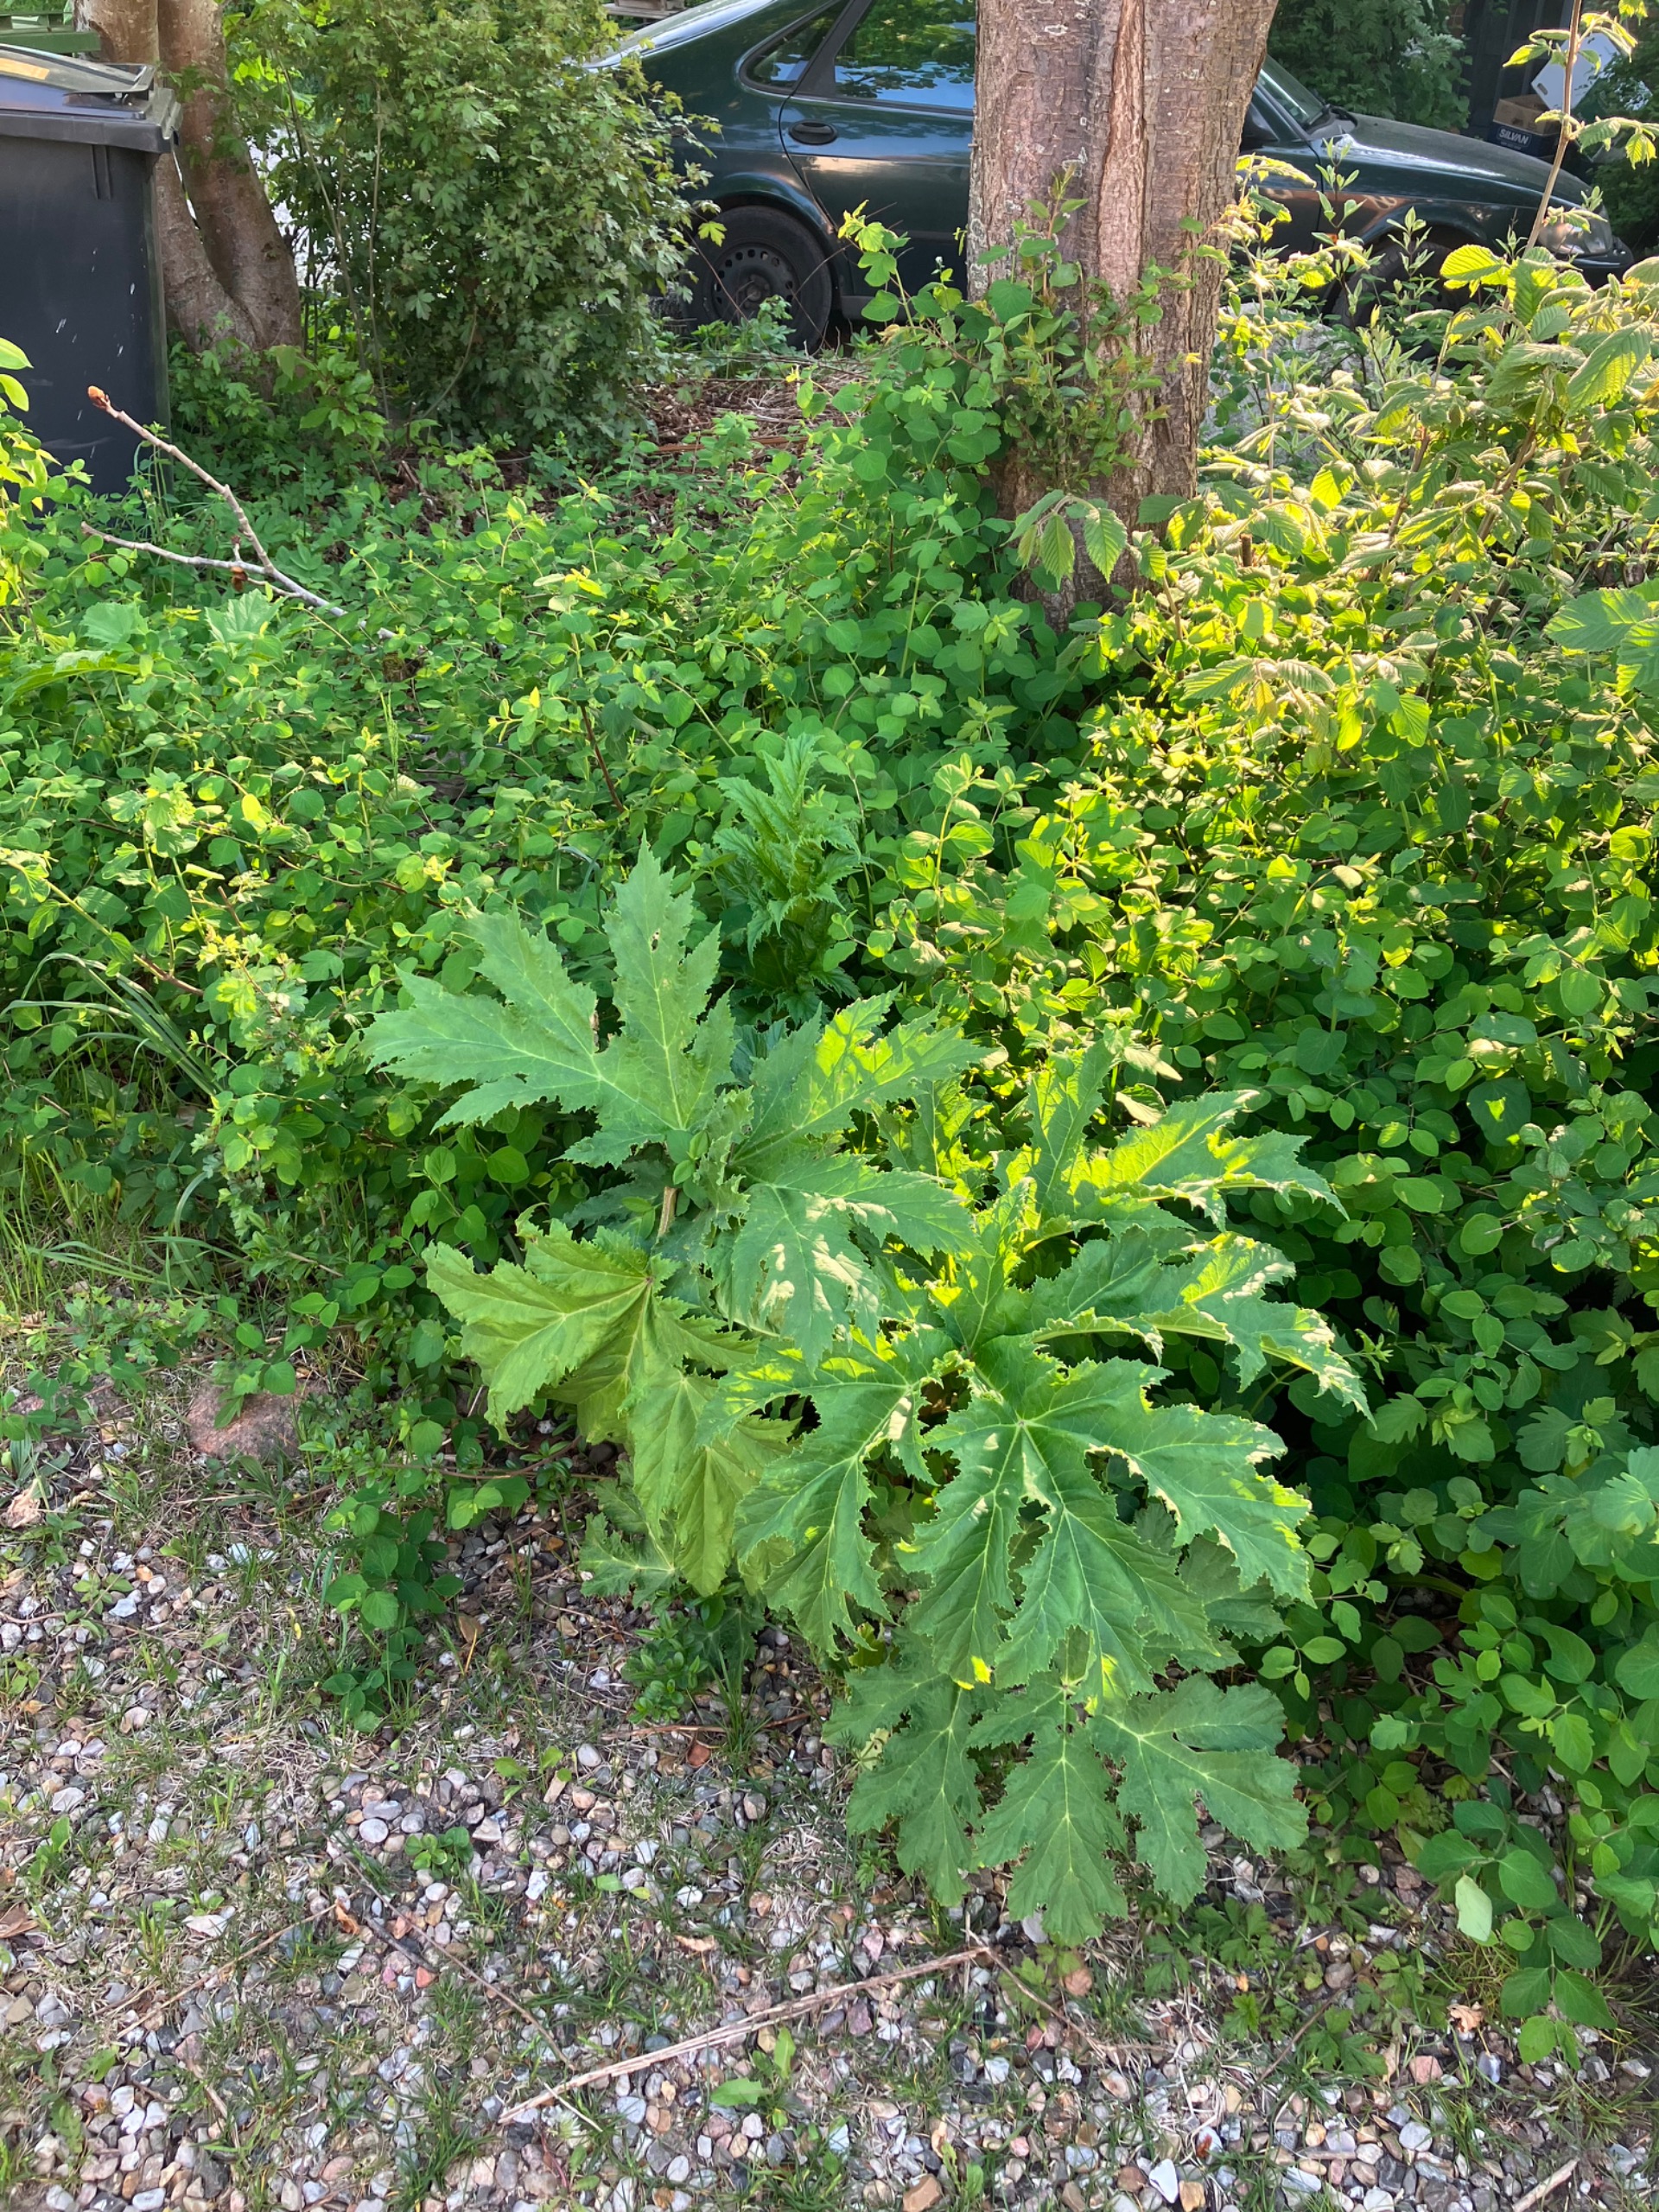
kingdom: Plantae
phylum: Tracheophyta
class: Magnoliopsida
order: Apiales
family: Apiaceae
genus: Heracleum
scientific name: Heracleum mantegazzianum
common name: Kæmpe-bjørneklo
